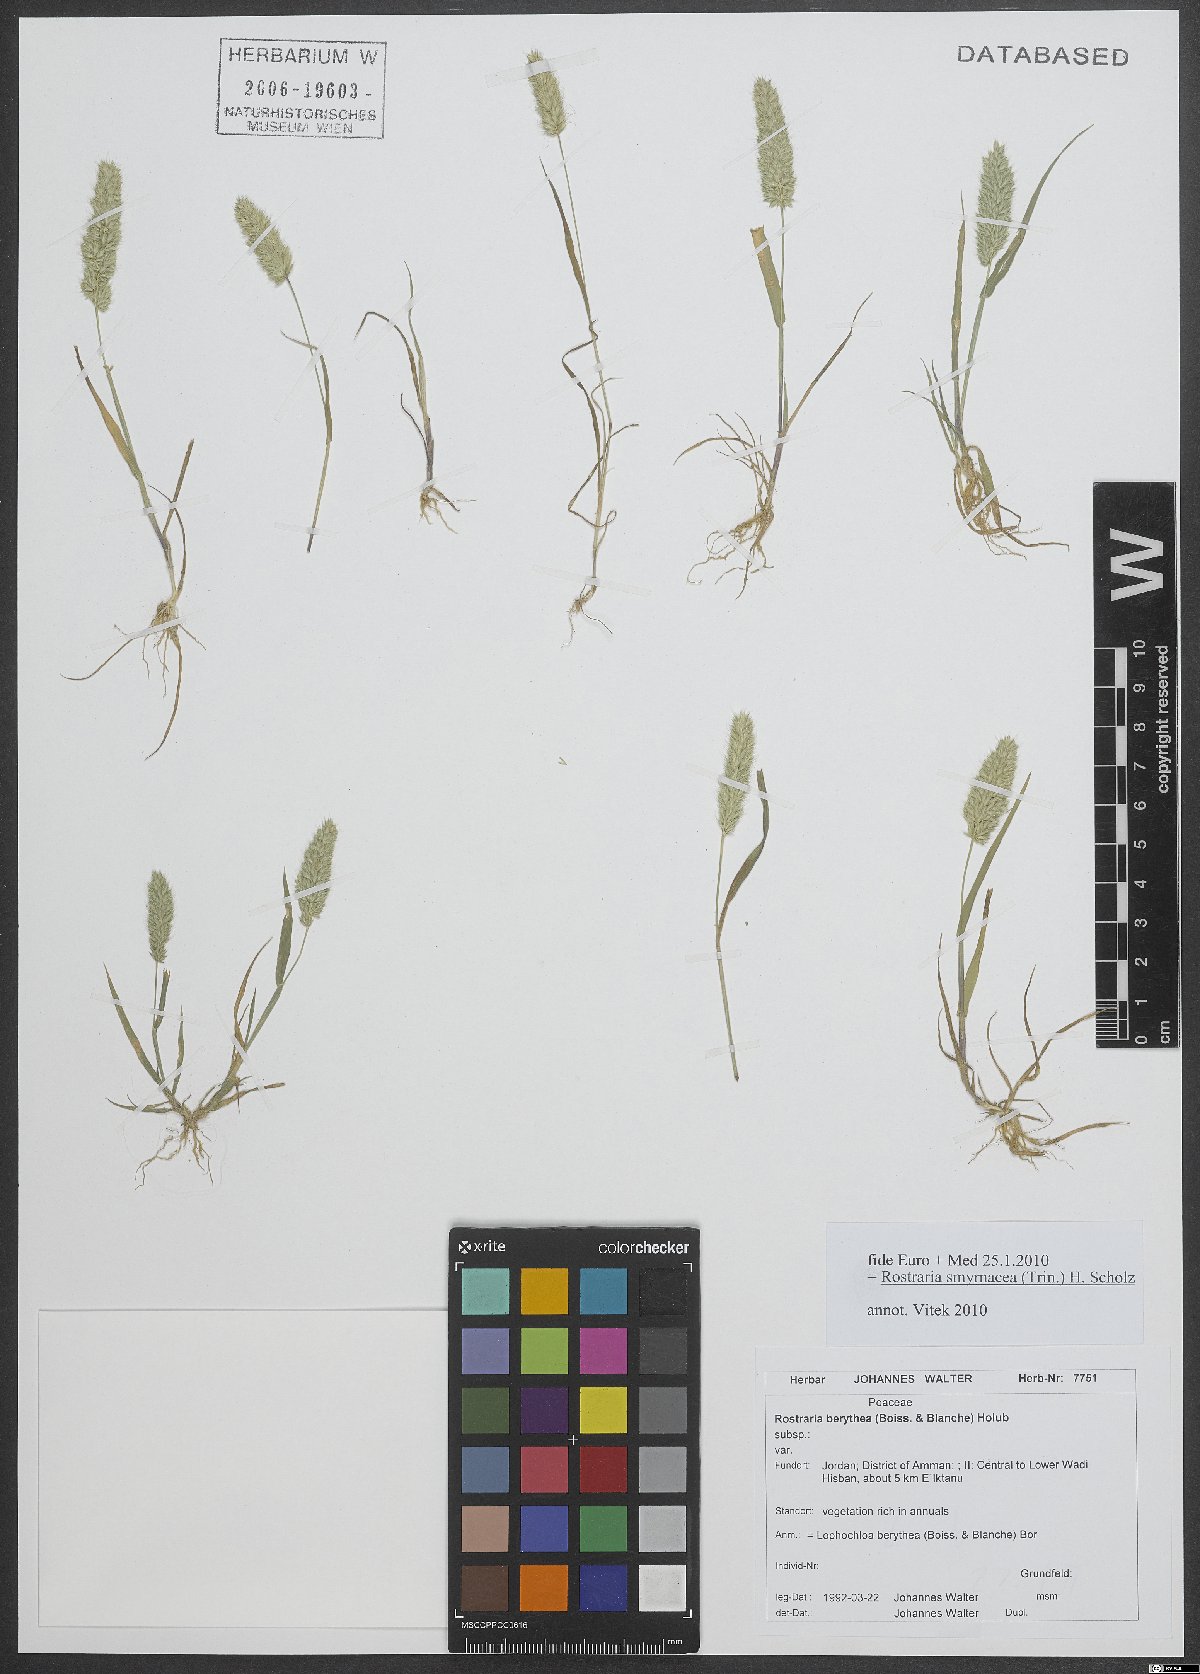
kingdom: Plantae
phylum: Tracheophyta
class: Liliopsida
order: Poales
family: Poaceae
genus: Rostraria
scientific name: Rostraria cristata
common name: Mediterranean hair-grass
